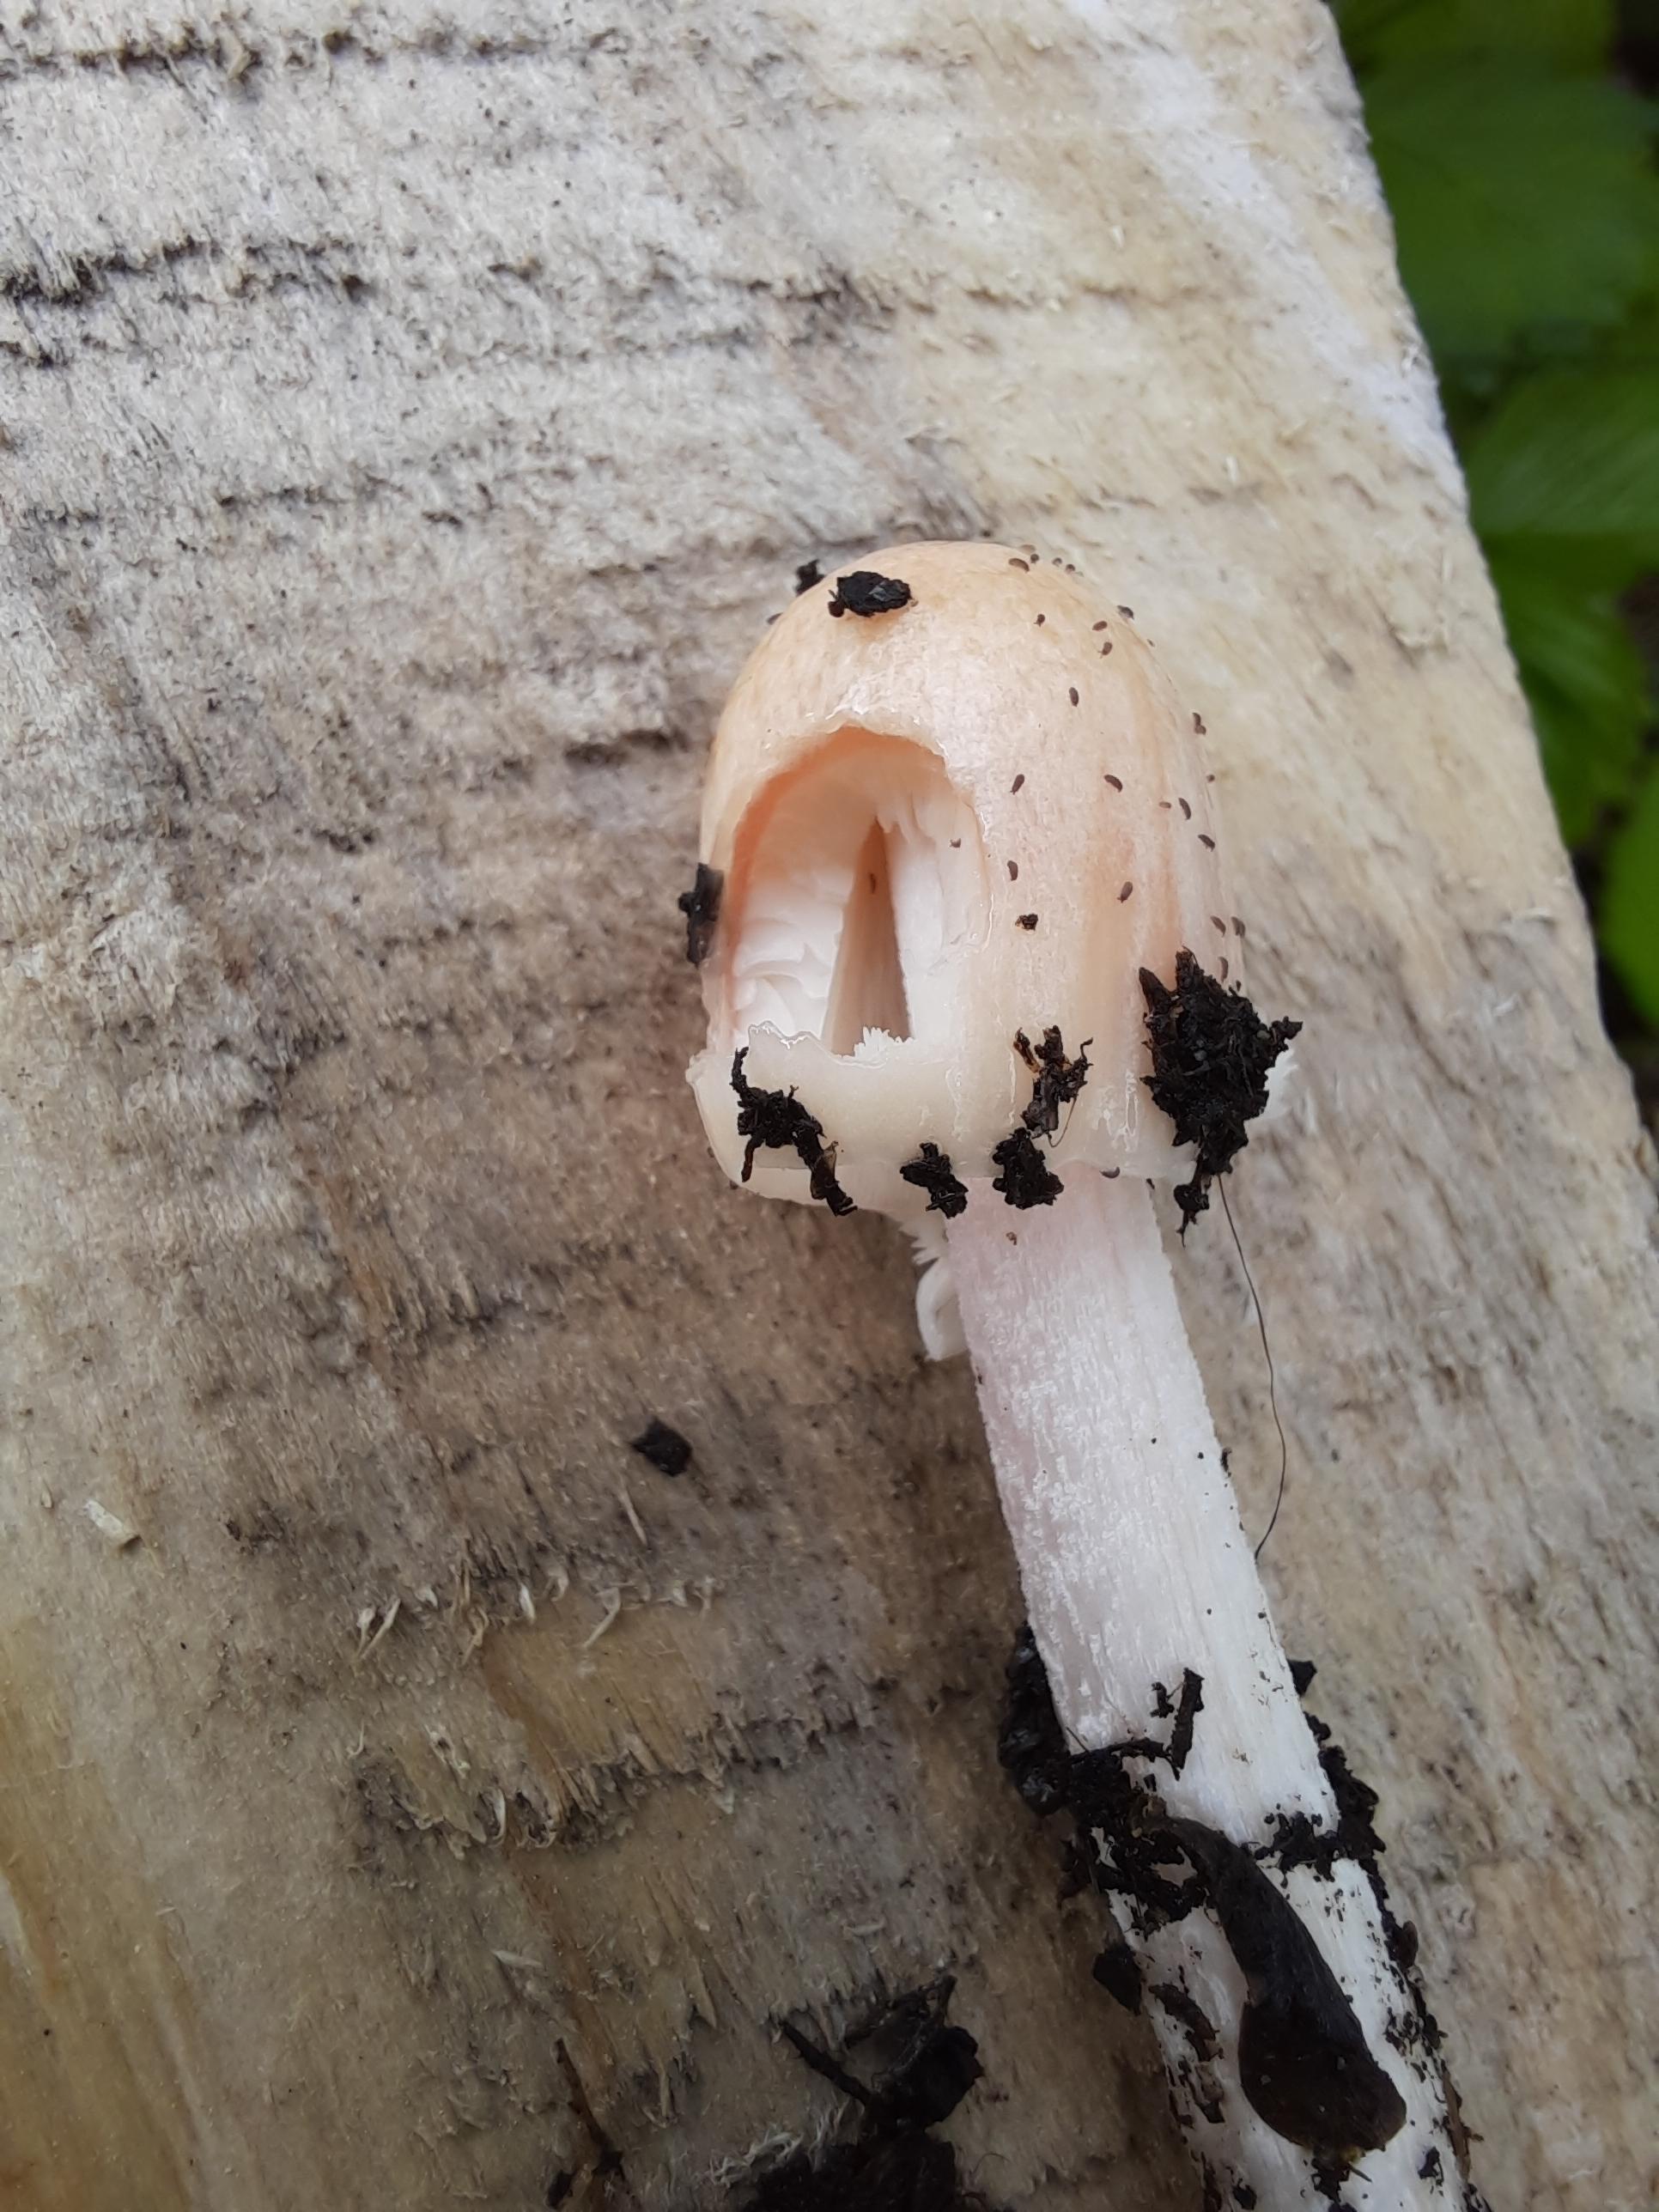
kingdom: Fungi
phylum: Basidiomycota
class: Agaricomycetes
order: Agaricales
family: Bolbitiaceae
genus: Bolbitius
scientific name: Bolbitius coprophilus
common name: rosa gulhat
